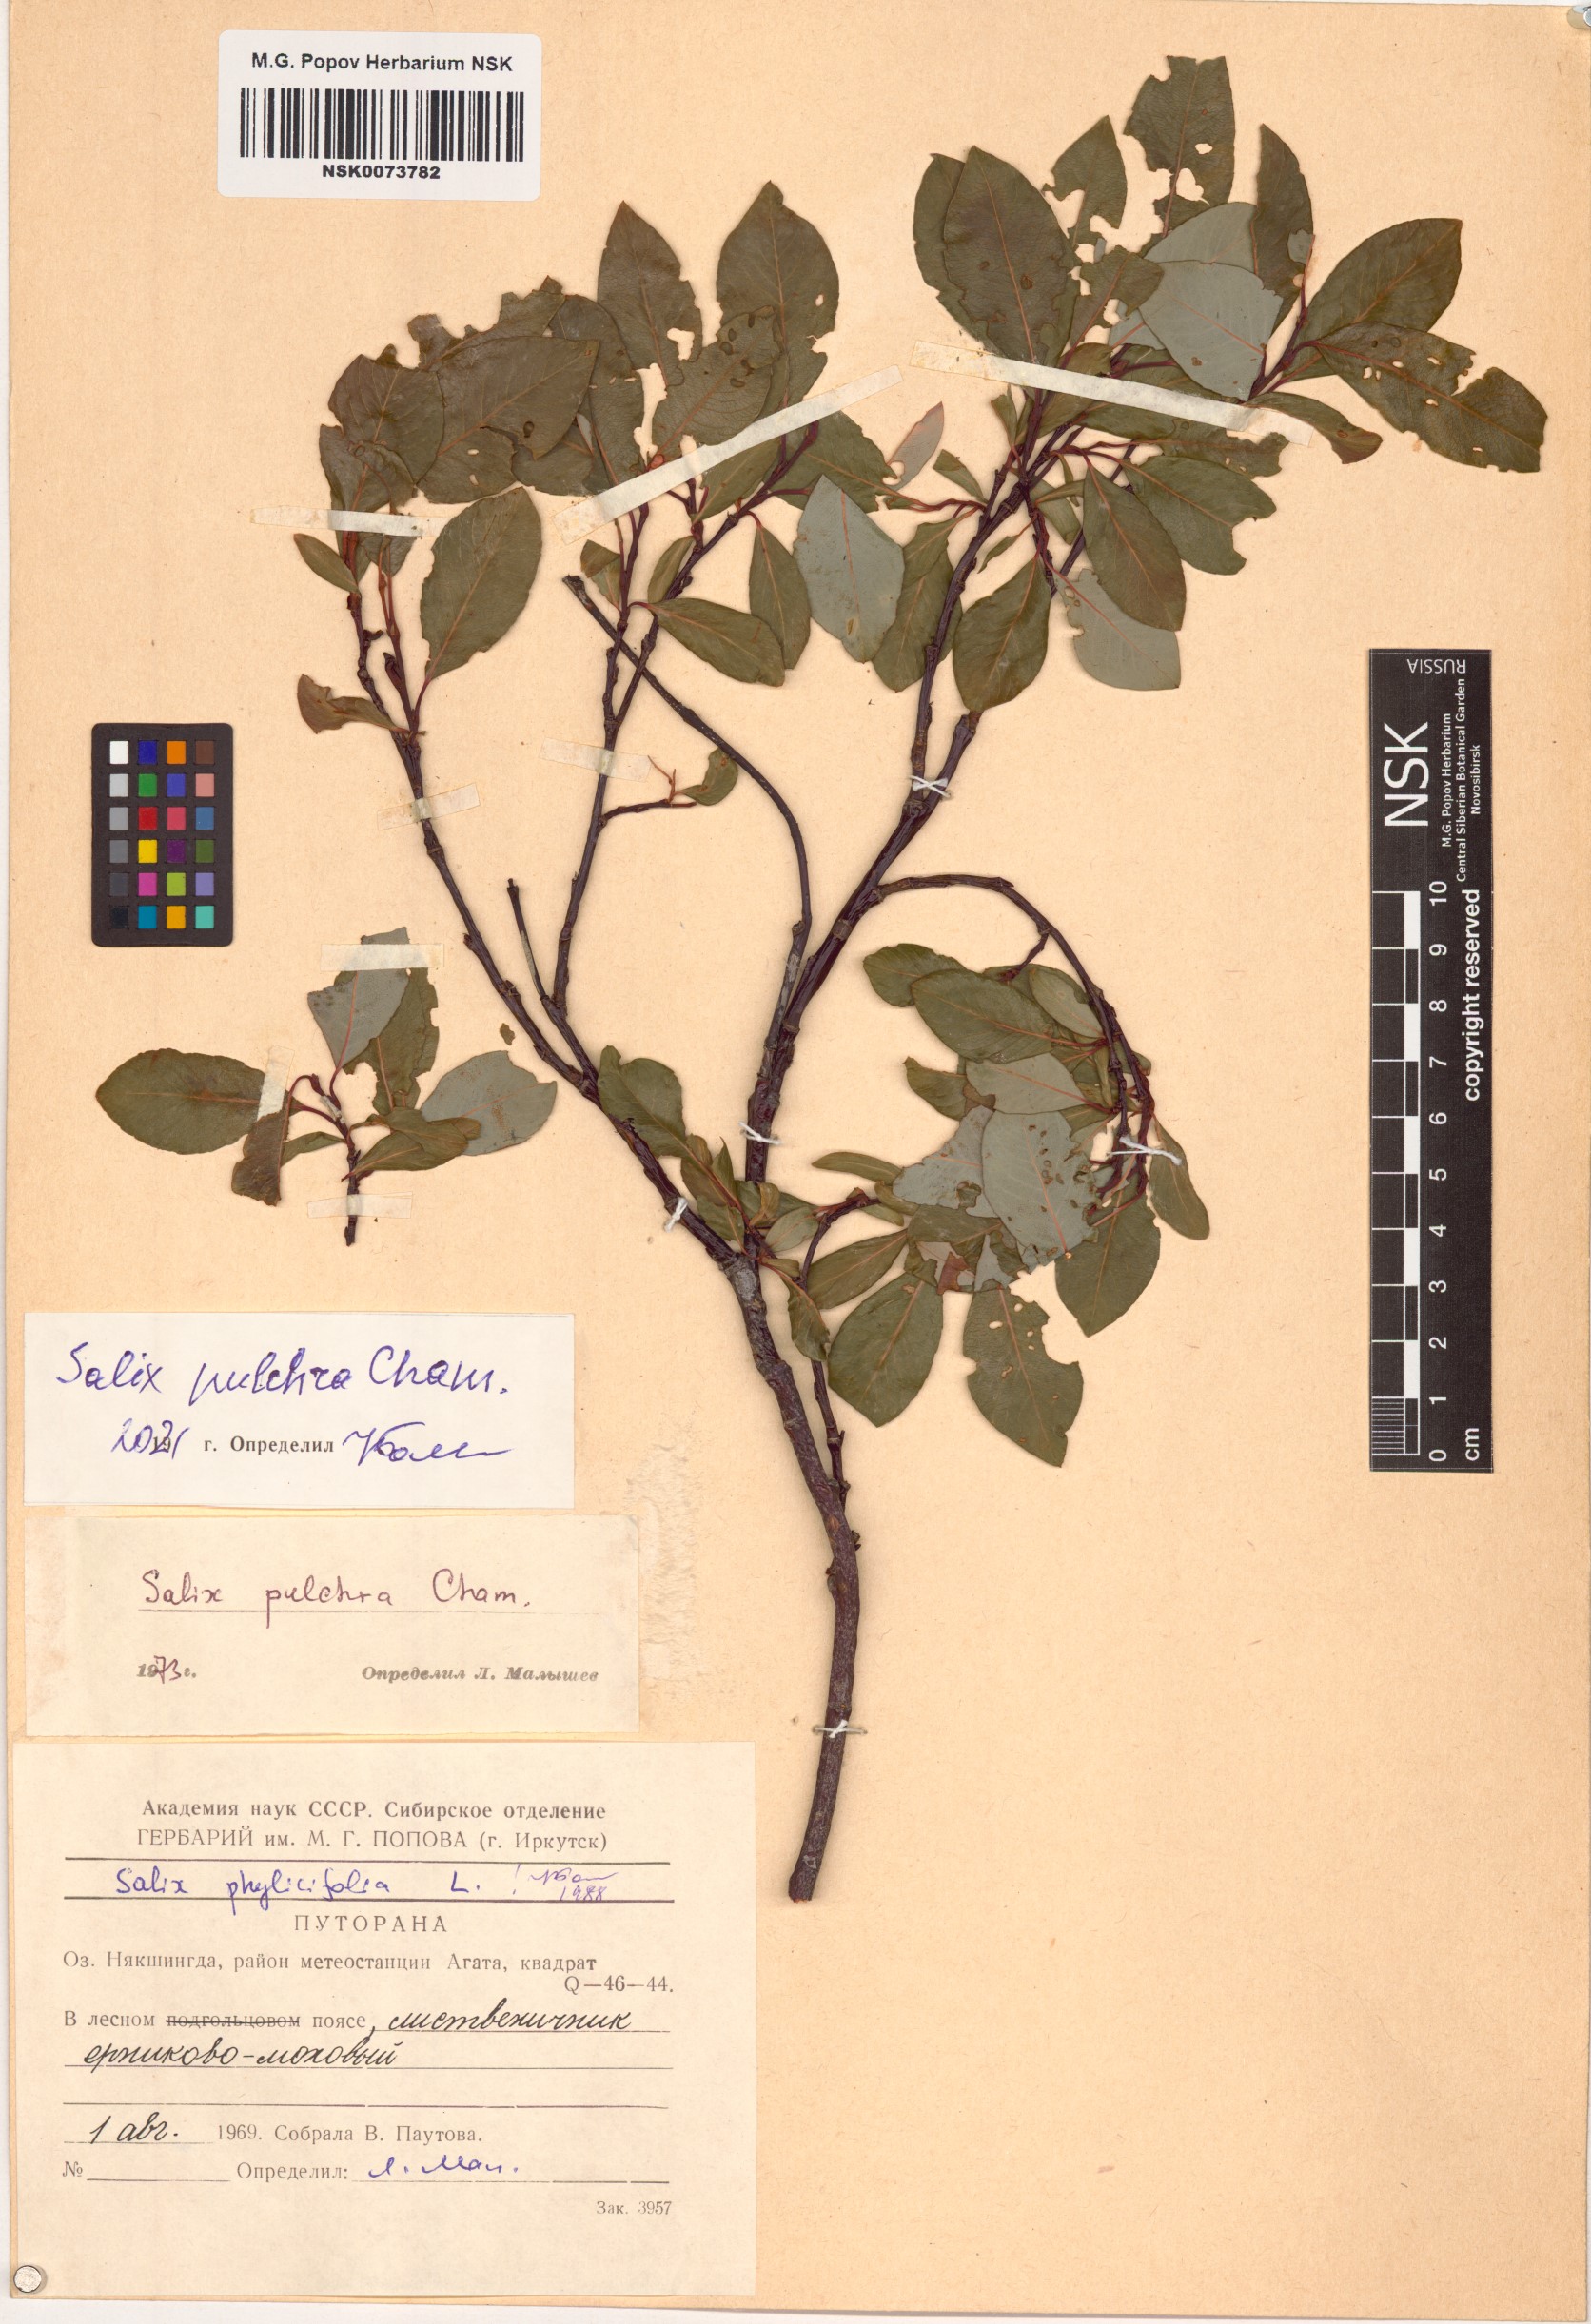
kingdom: Plantae
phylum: Tracheophyta
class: Magnoliopsida
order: Malpighiales
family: Salicaceae
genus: Salix
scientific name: Salix pulchra
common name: Diamond-leaved willow
